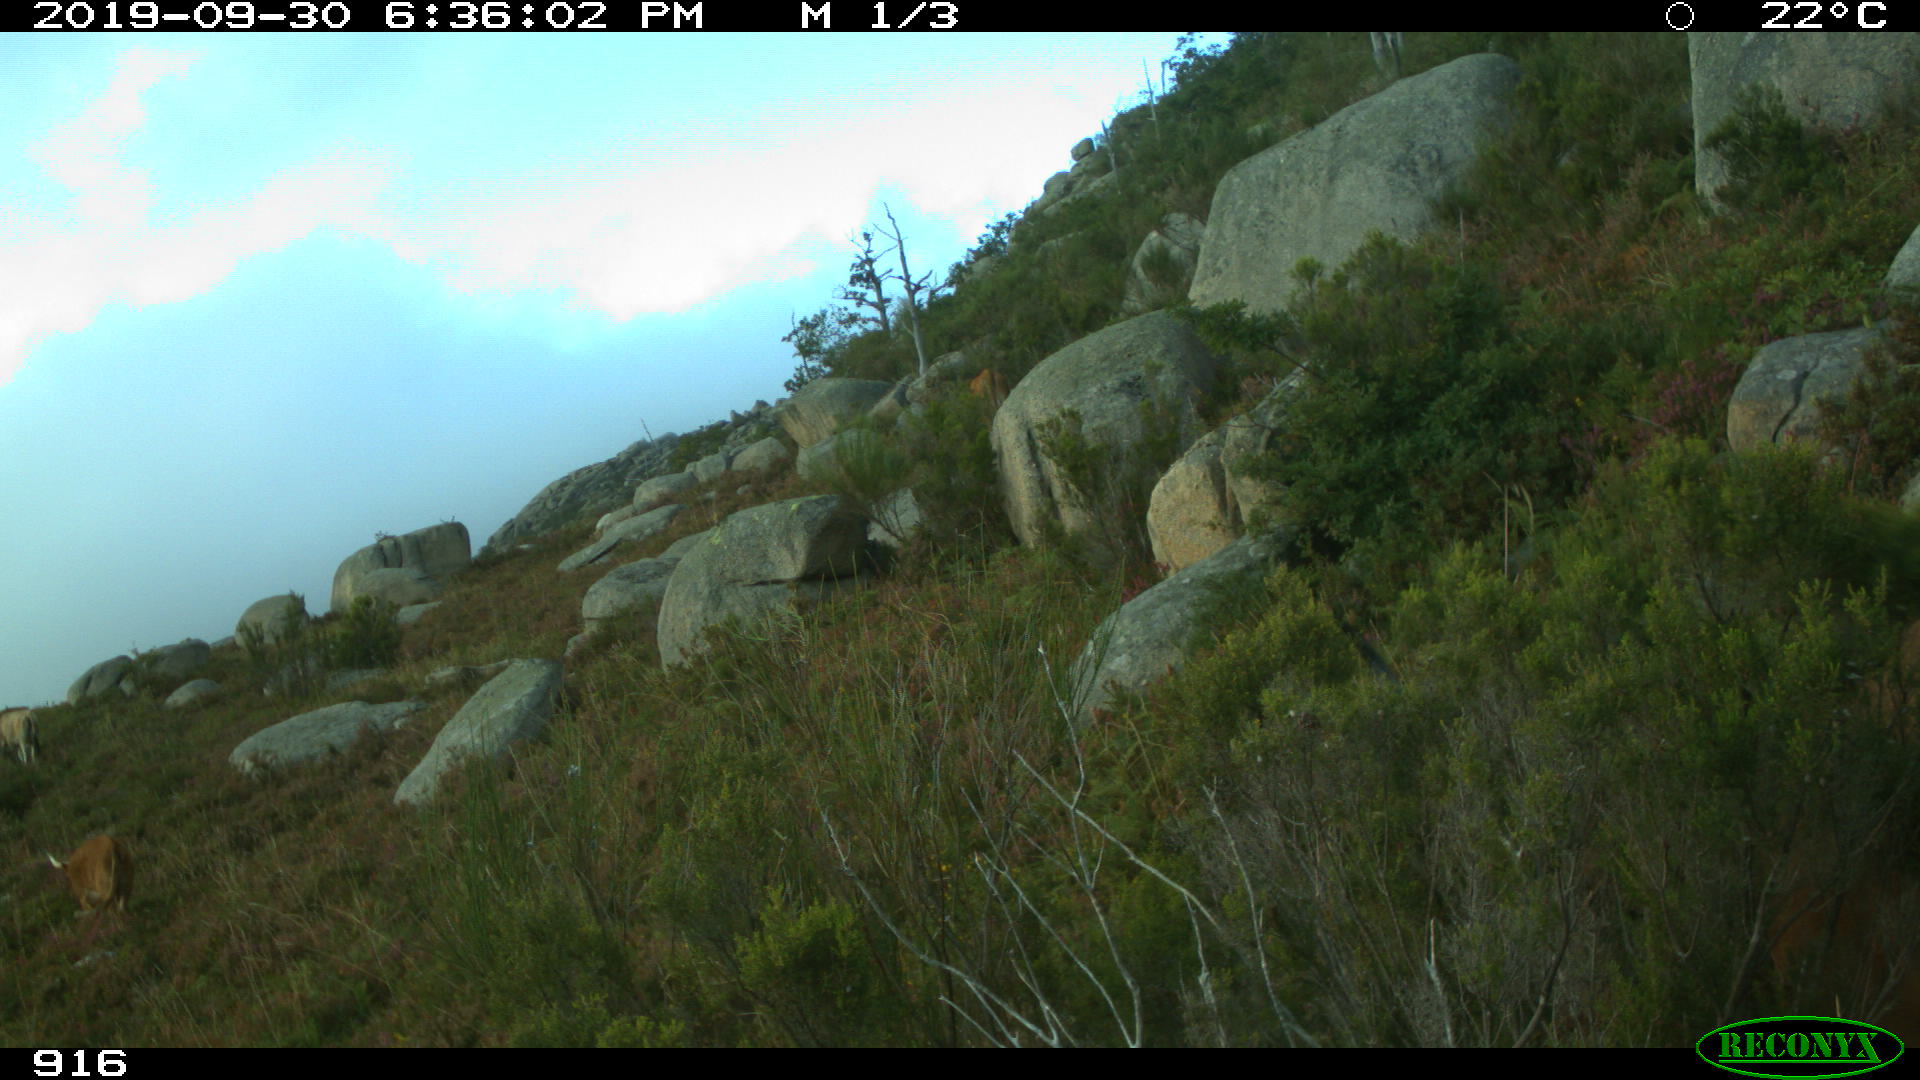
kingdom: Animalia
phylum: Chordata
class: Mammalia
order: Artiodactyla
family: Bovidae
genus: Bos
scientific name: Bos taurus
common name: Domesticated cattle
